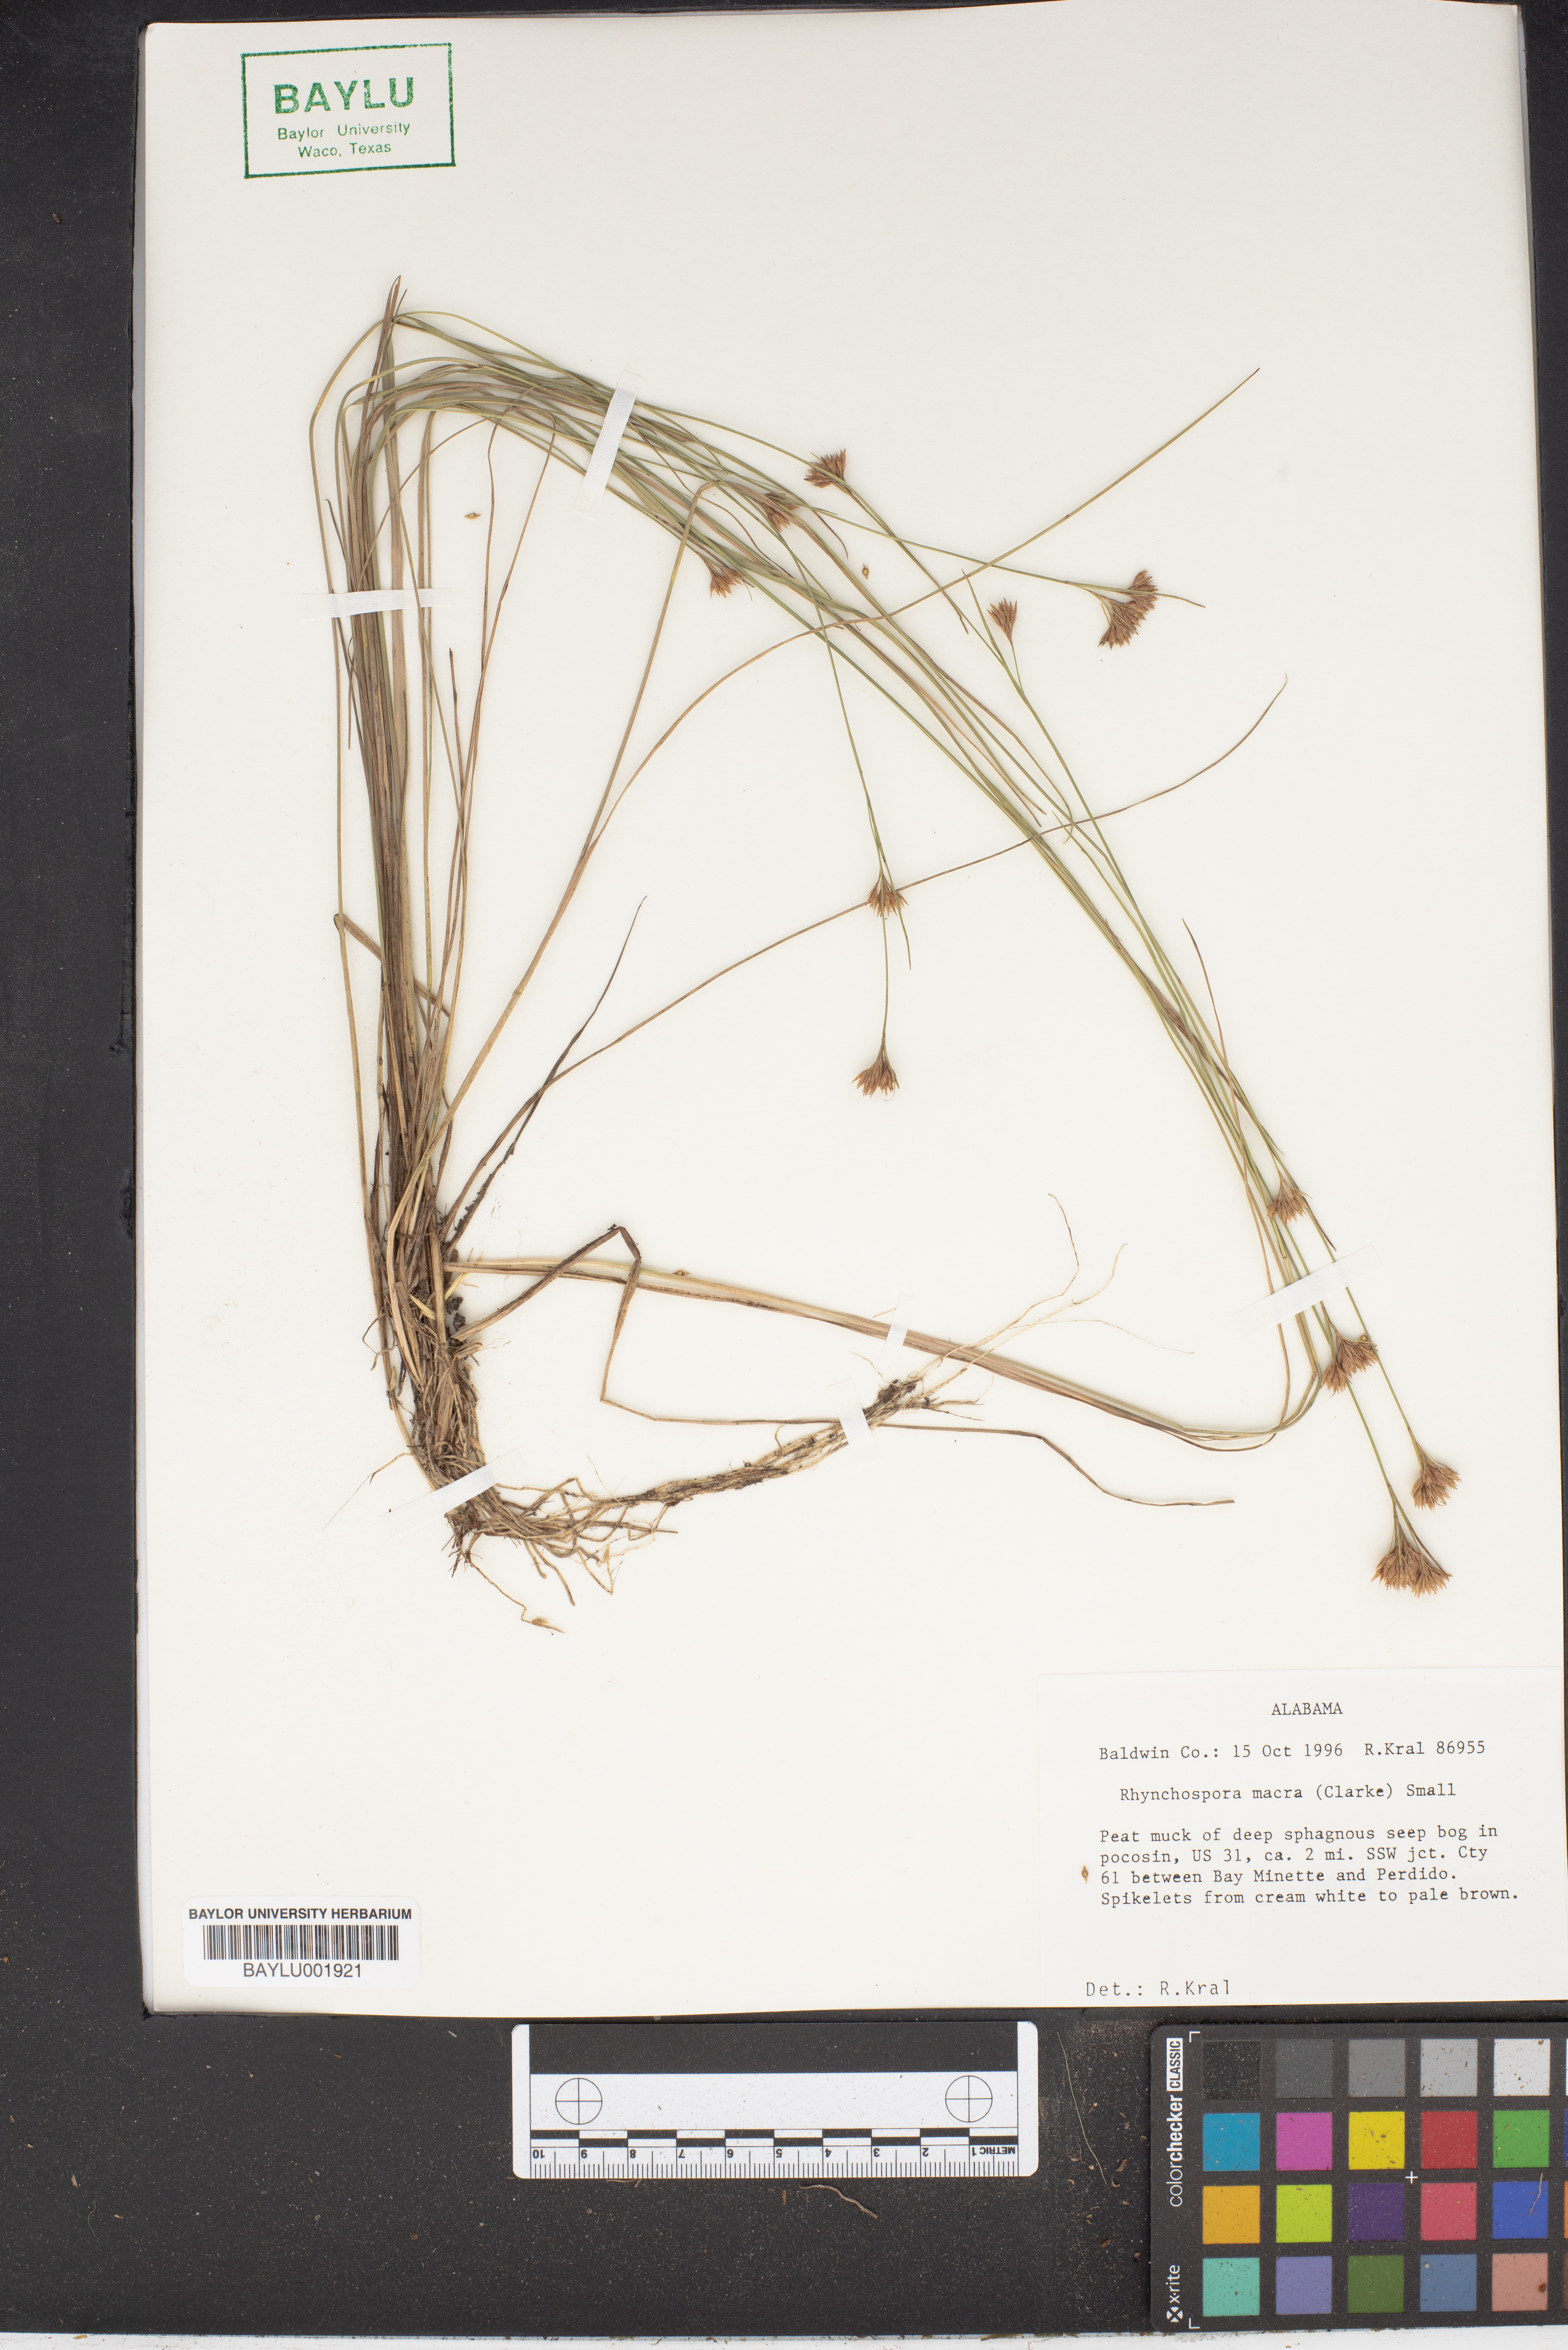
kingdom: Plantae
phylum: Tracheophyta
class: Liliopsida
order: Poales
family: Cyperaceae
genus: Rhynchospora
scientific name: Rhynchospora macra
